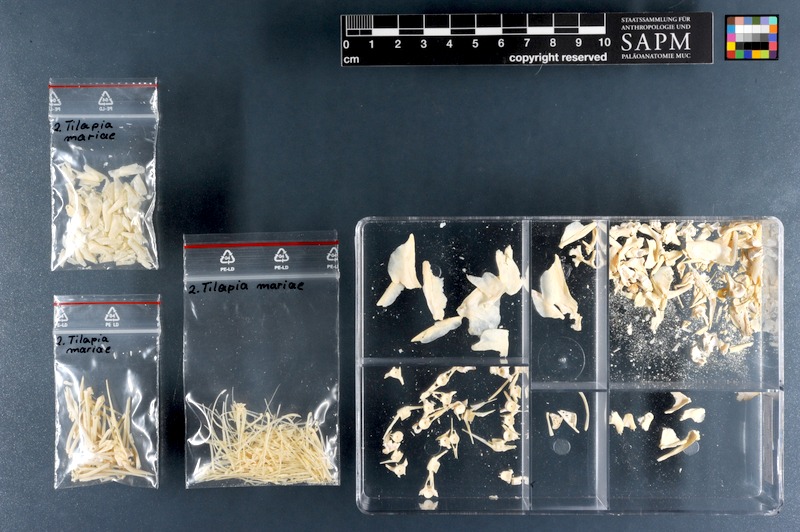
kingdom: Animalia
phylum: Chordata
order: Perciformes
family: Cichlidae
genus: Pelmatolapia
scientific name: Pelmatolapia mariae
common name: Spotted tilapia
